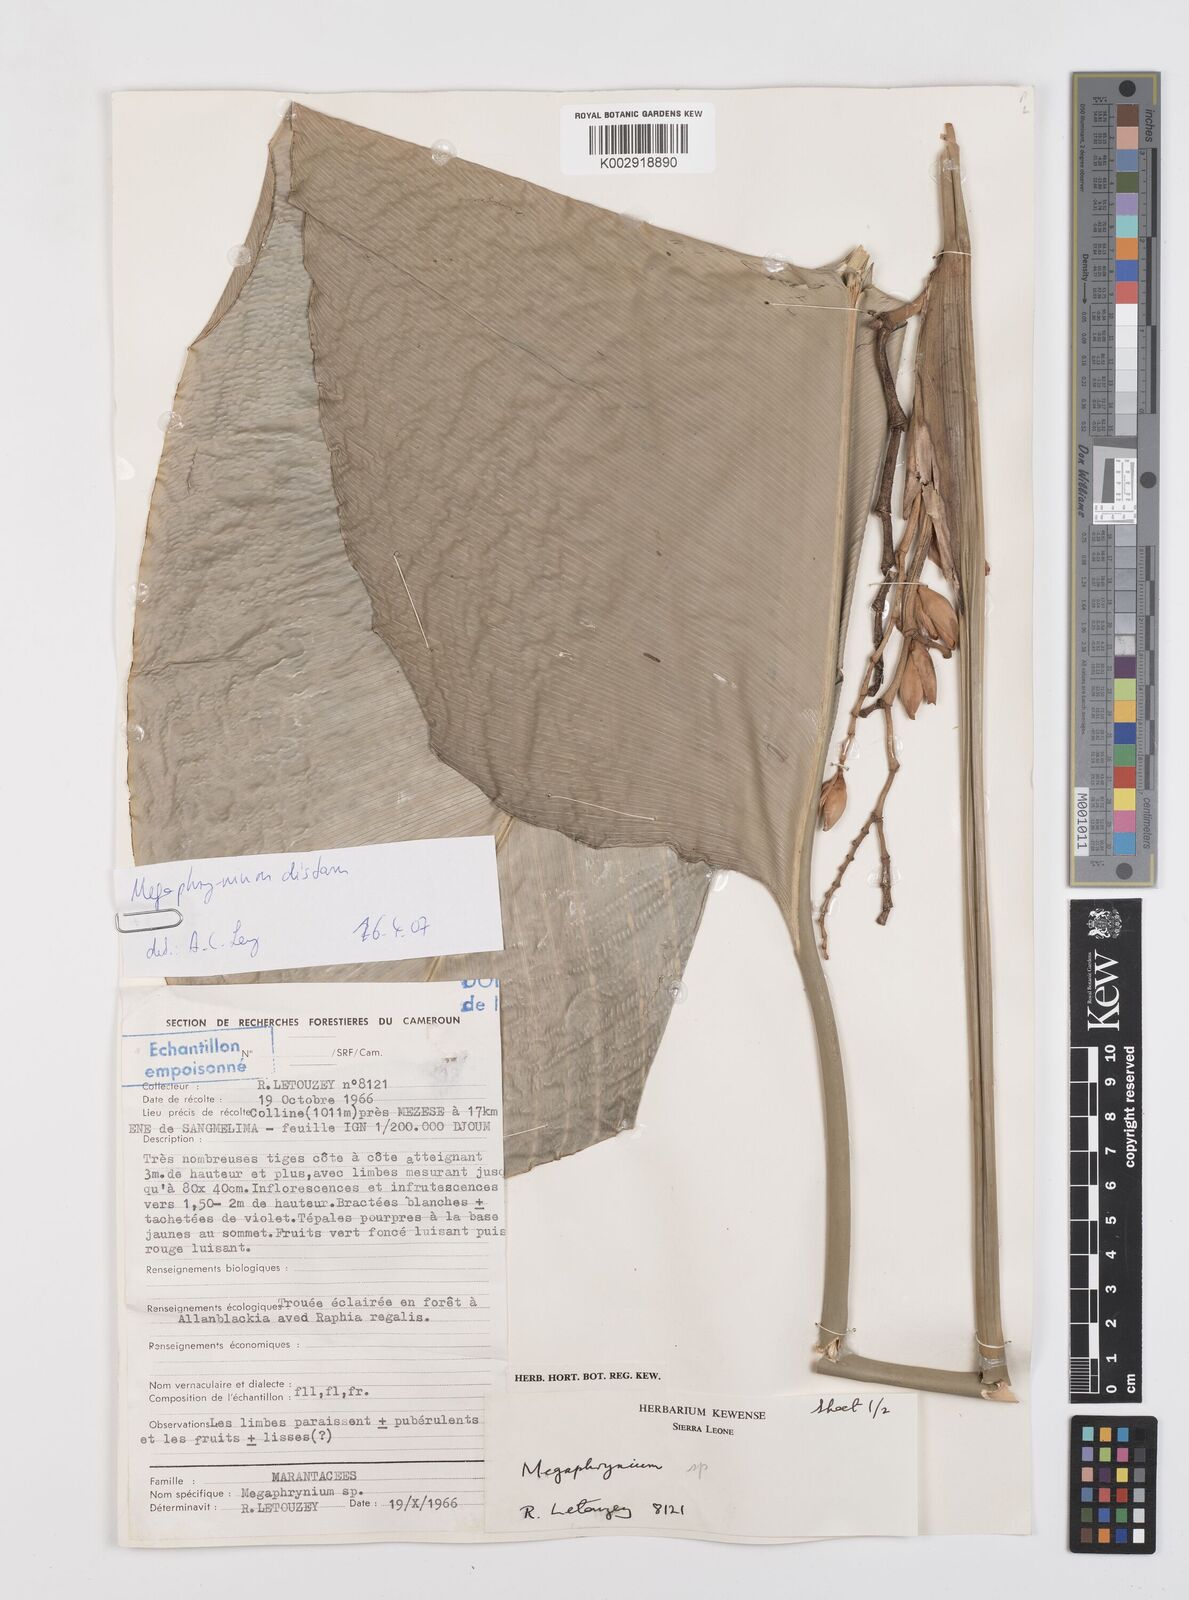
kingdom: Plantae
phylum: Tracheophyta
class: Liliopsida
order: Zingiberales
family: Marantaceae
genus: Megaphrynium
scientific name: Megaphrynium distans
